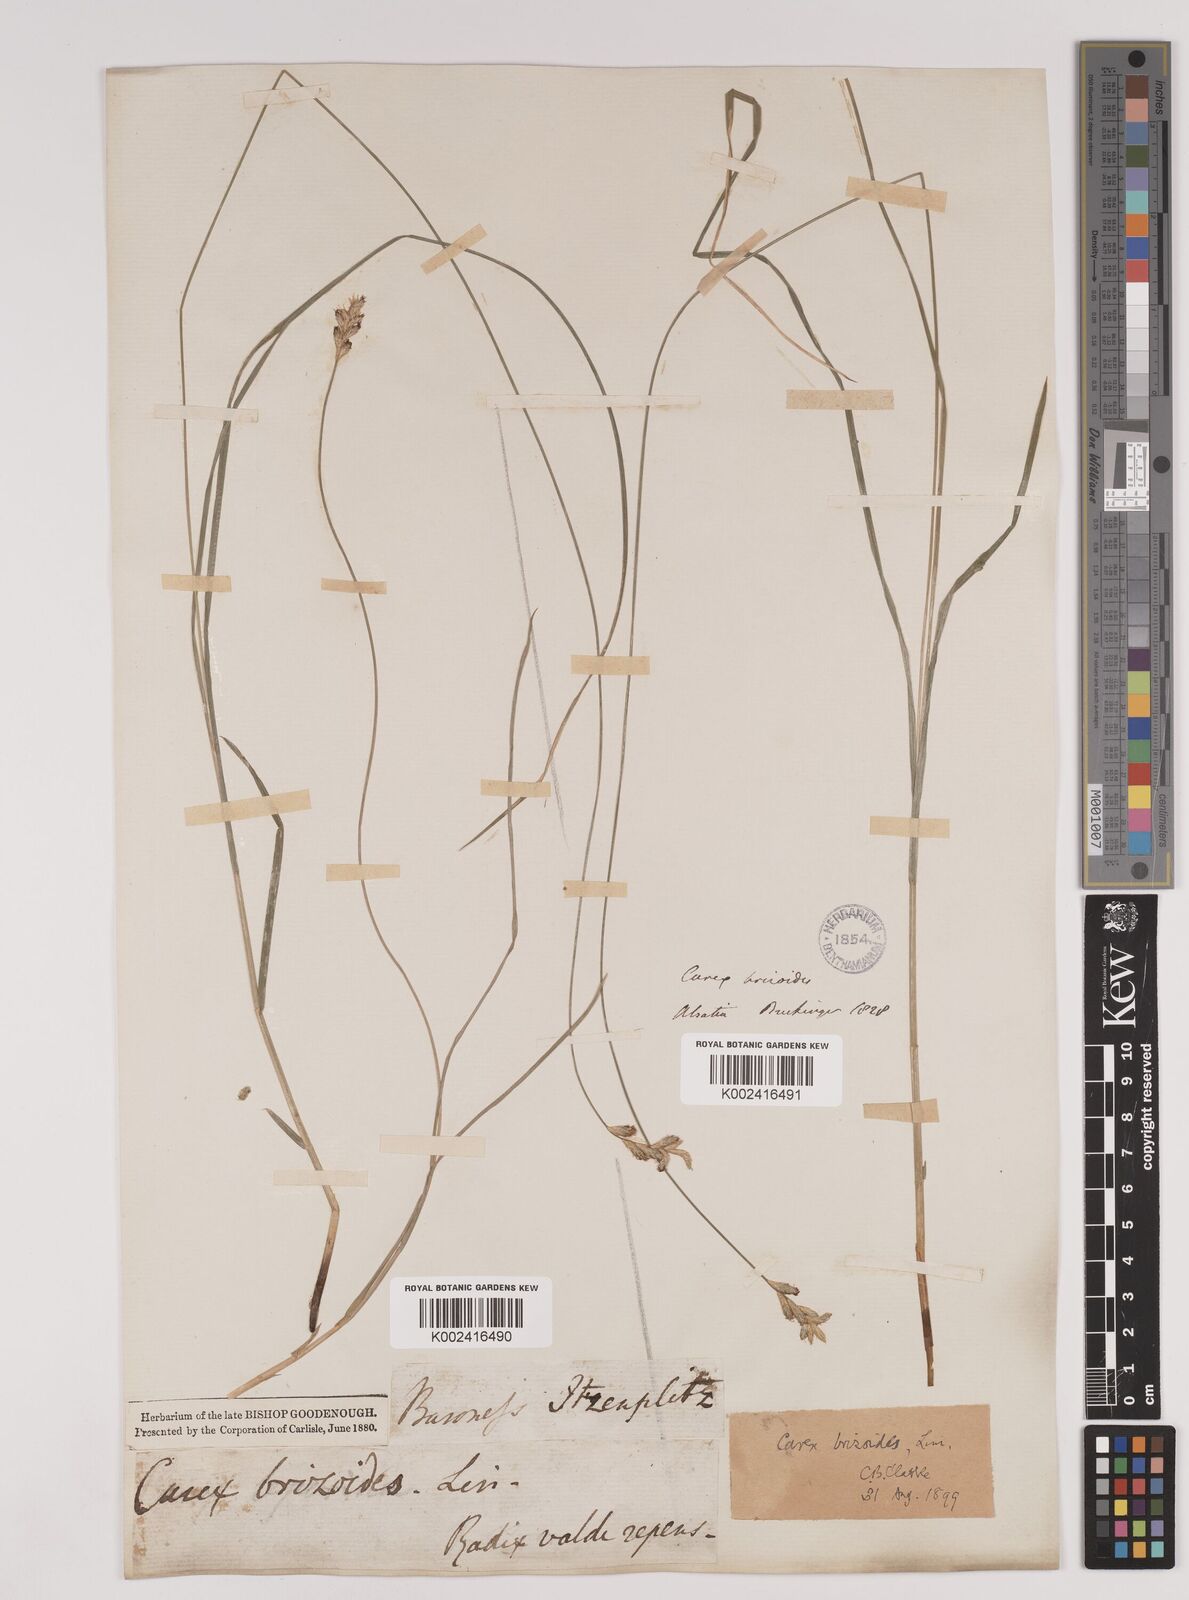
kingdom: Plantae
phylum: Tracheophyta
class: Liliopsida
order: Poales
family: Cyperaceae
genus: Carex
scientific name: Carex brizoides
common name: Quaking-grass sedge
